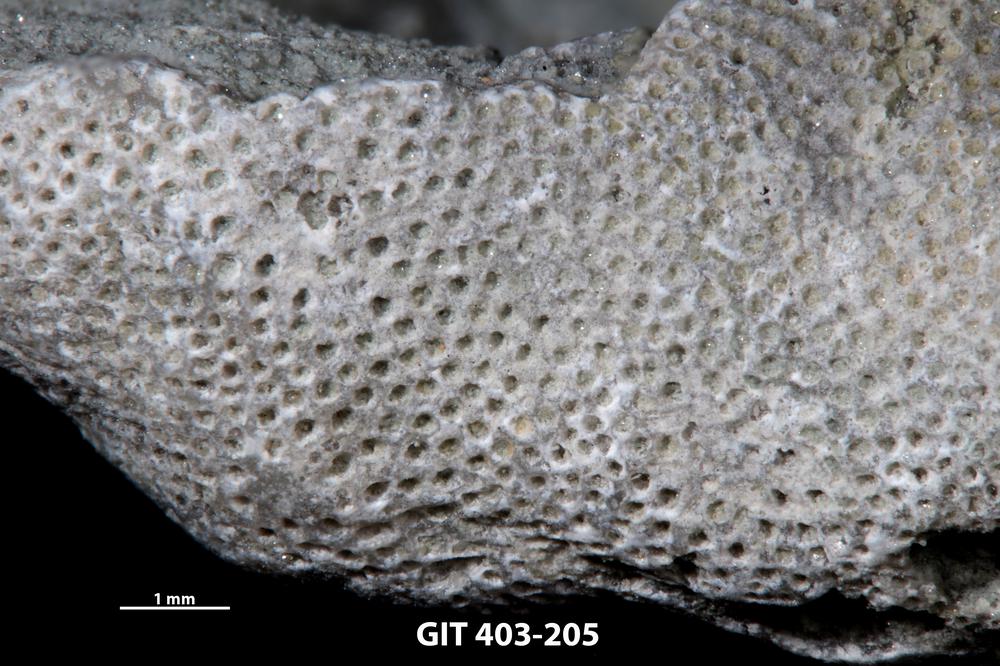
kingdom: Animalia
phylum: Bryozoa
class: Stenolaemata
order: Cystoporida
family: Fistuliporidae
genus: Fistulipora
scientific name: Fistulipora przhidolensis
